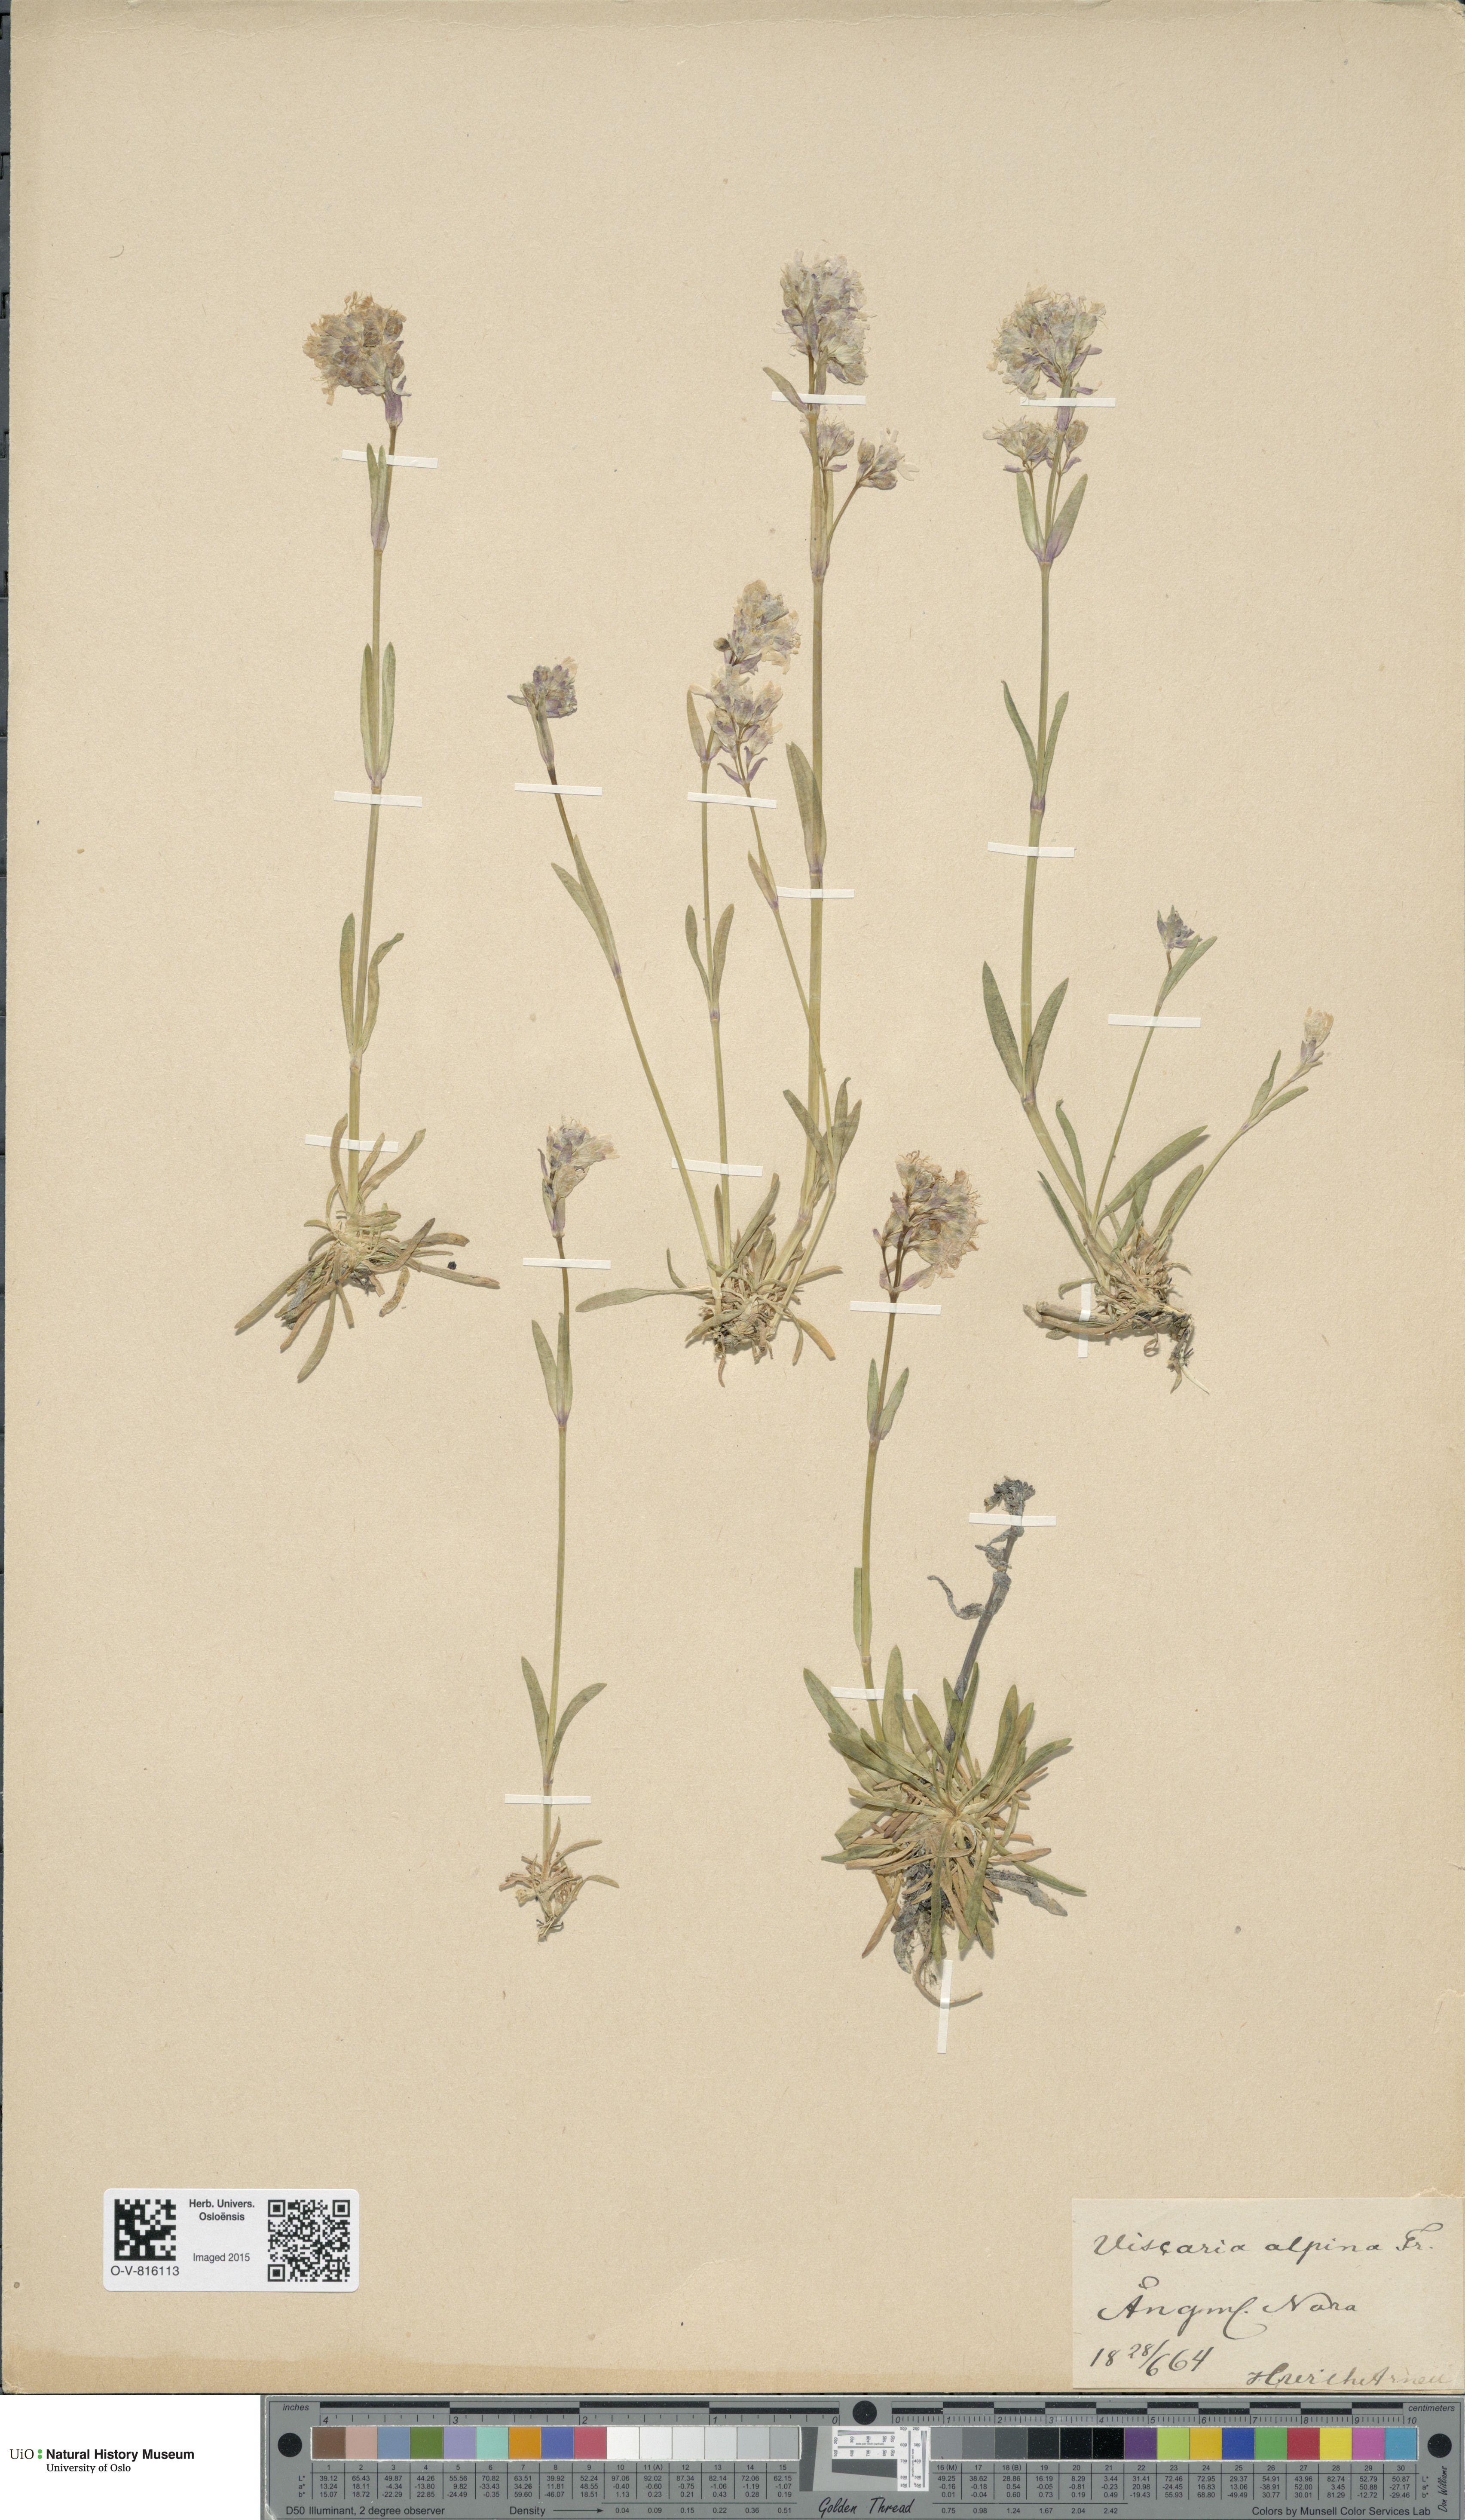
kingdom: Plantae
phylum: Tracheophyta
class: Magnoliopsida
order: Caryophyllales
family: Caryophyllaceae
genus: Viscaria
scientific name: Viscaria alpina
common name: Alpine campion
